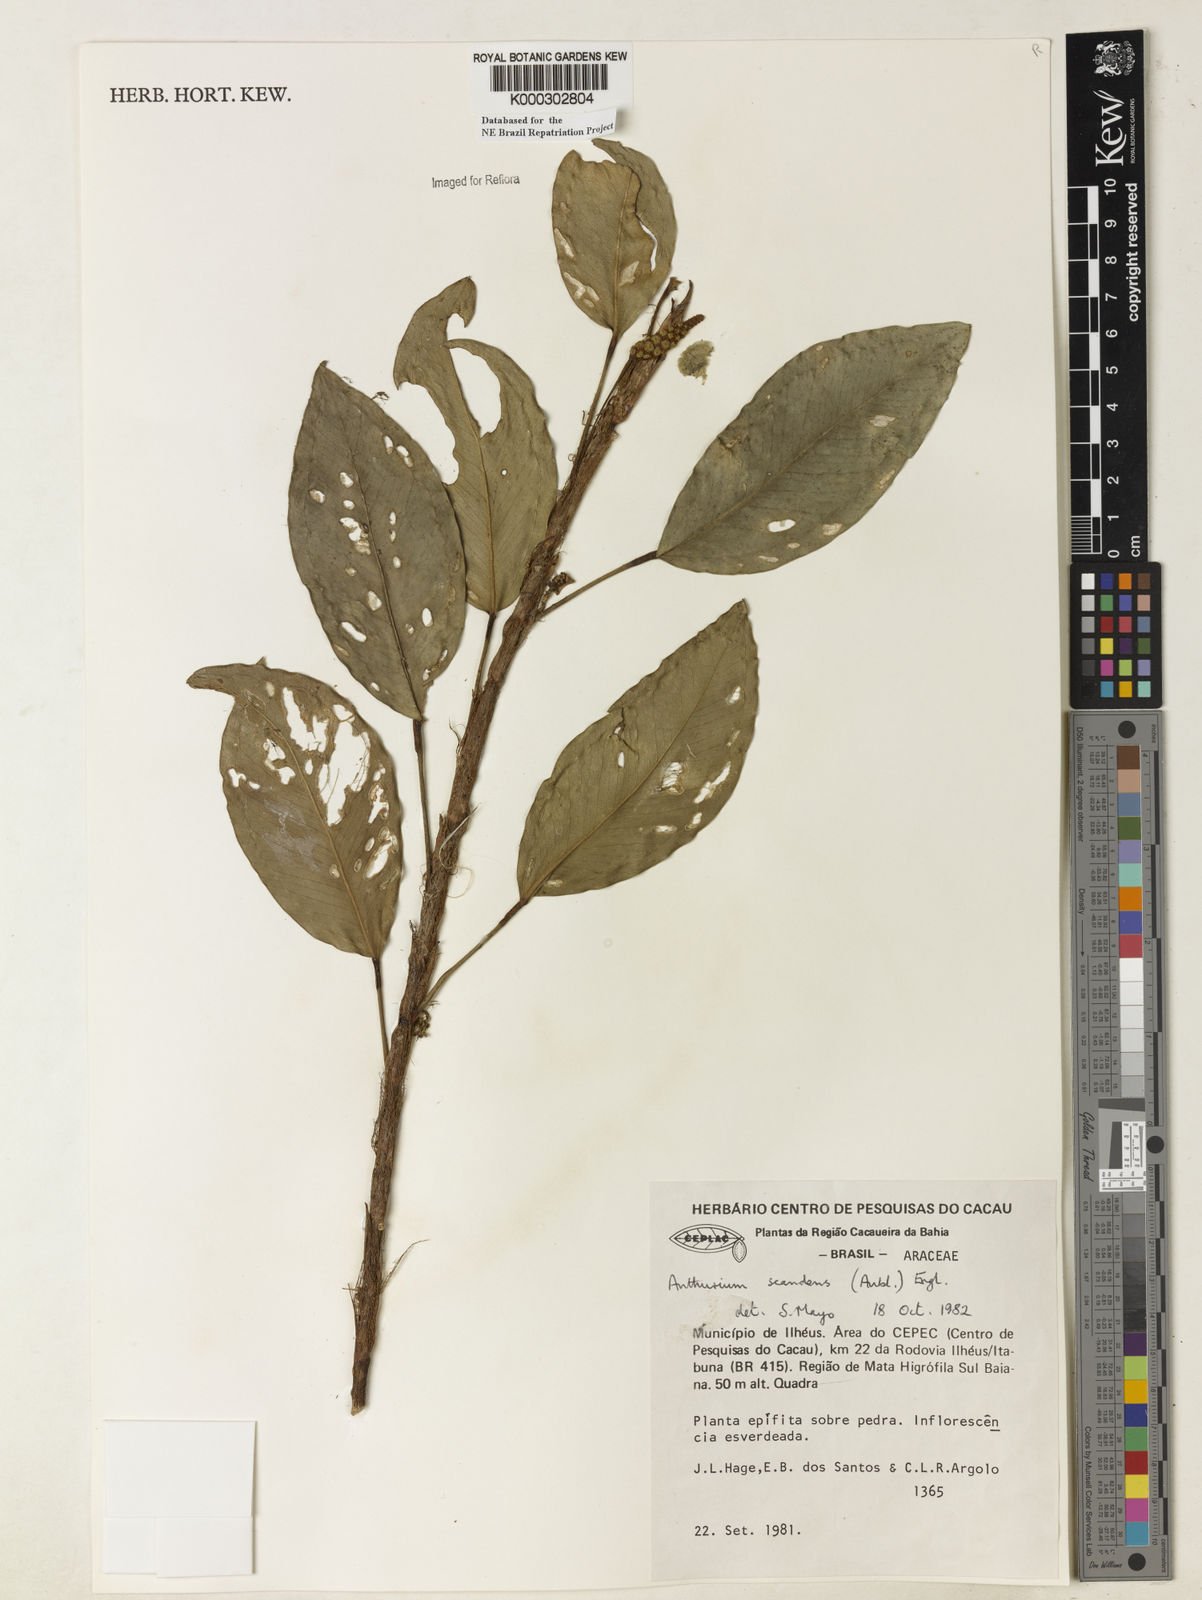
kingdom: Plantae
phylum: Tracheophyta
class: Liliopsida
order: Alismatales
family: Araceae
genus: Anthurium
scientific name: Anthurium scandens
